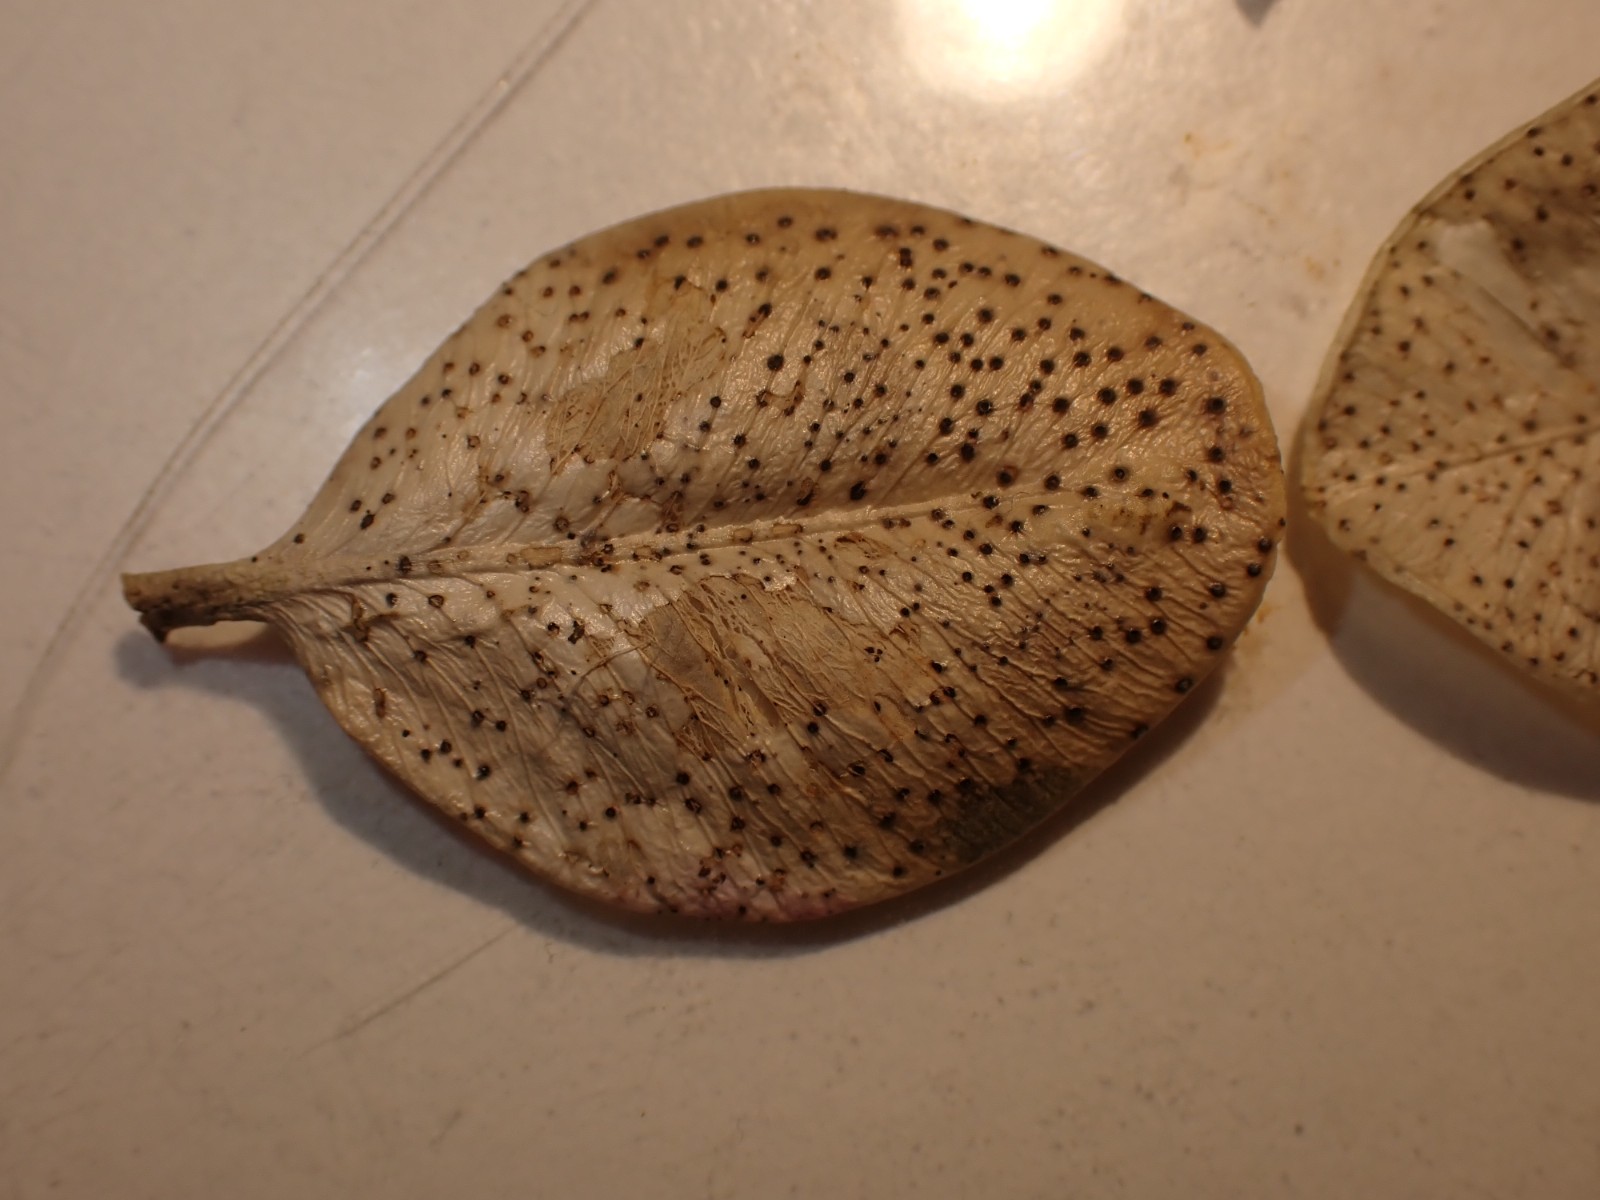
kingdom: Fungi
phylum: Ascomycota
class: Sordariomycetes
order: Diaporthales
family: Diaporthaceae
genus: Diaporthe
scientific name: Diaporthe stictica
